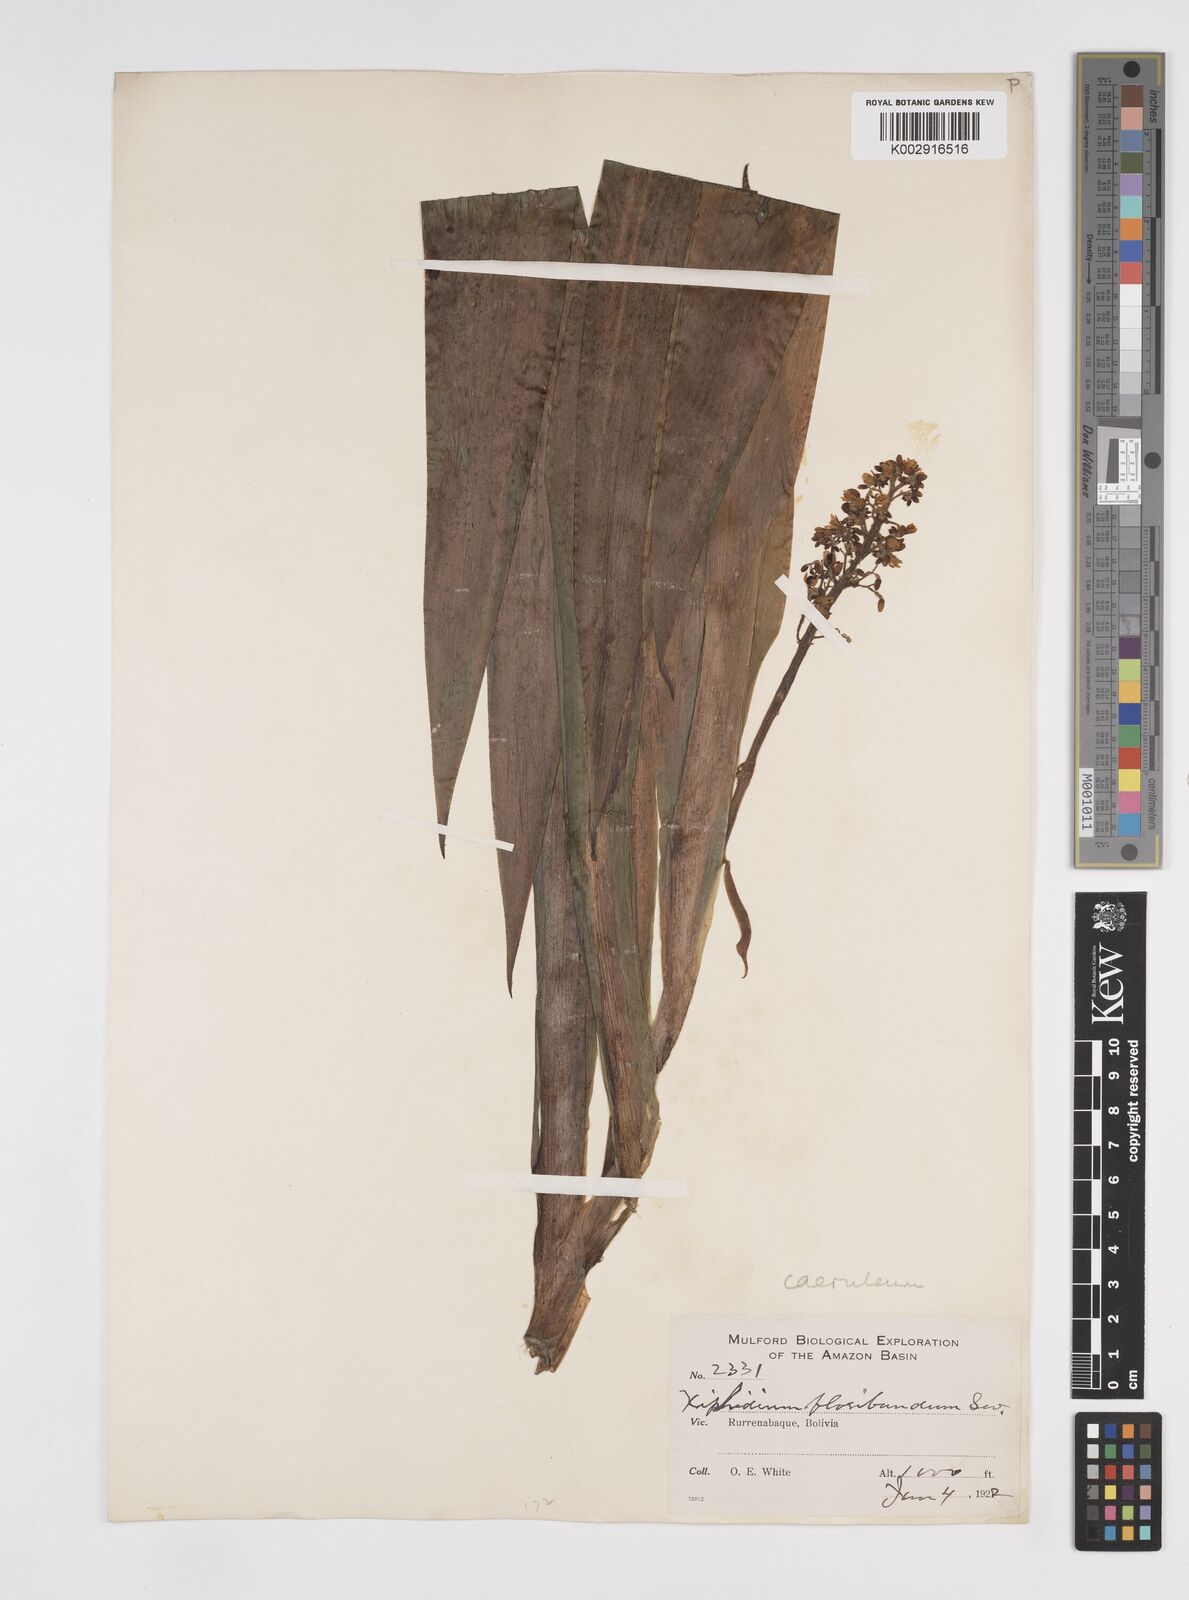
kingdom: Plantae
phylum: Tracheophyta
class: Liliopsida
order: Commelinales
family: Haemodoraceae
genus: Xiphidium
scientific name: Xiphidium caeruleum
